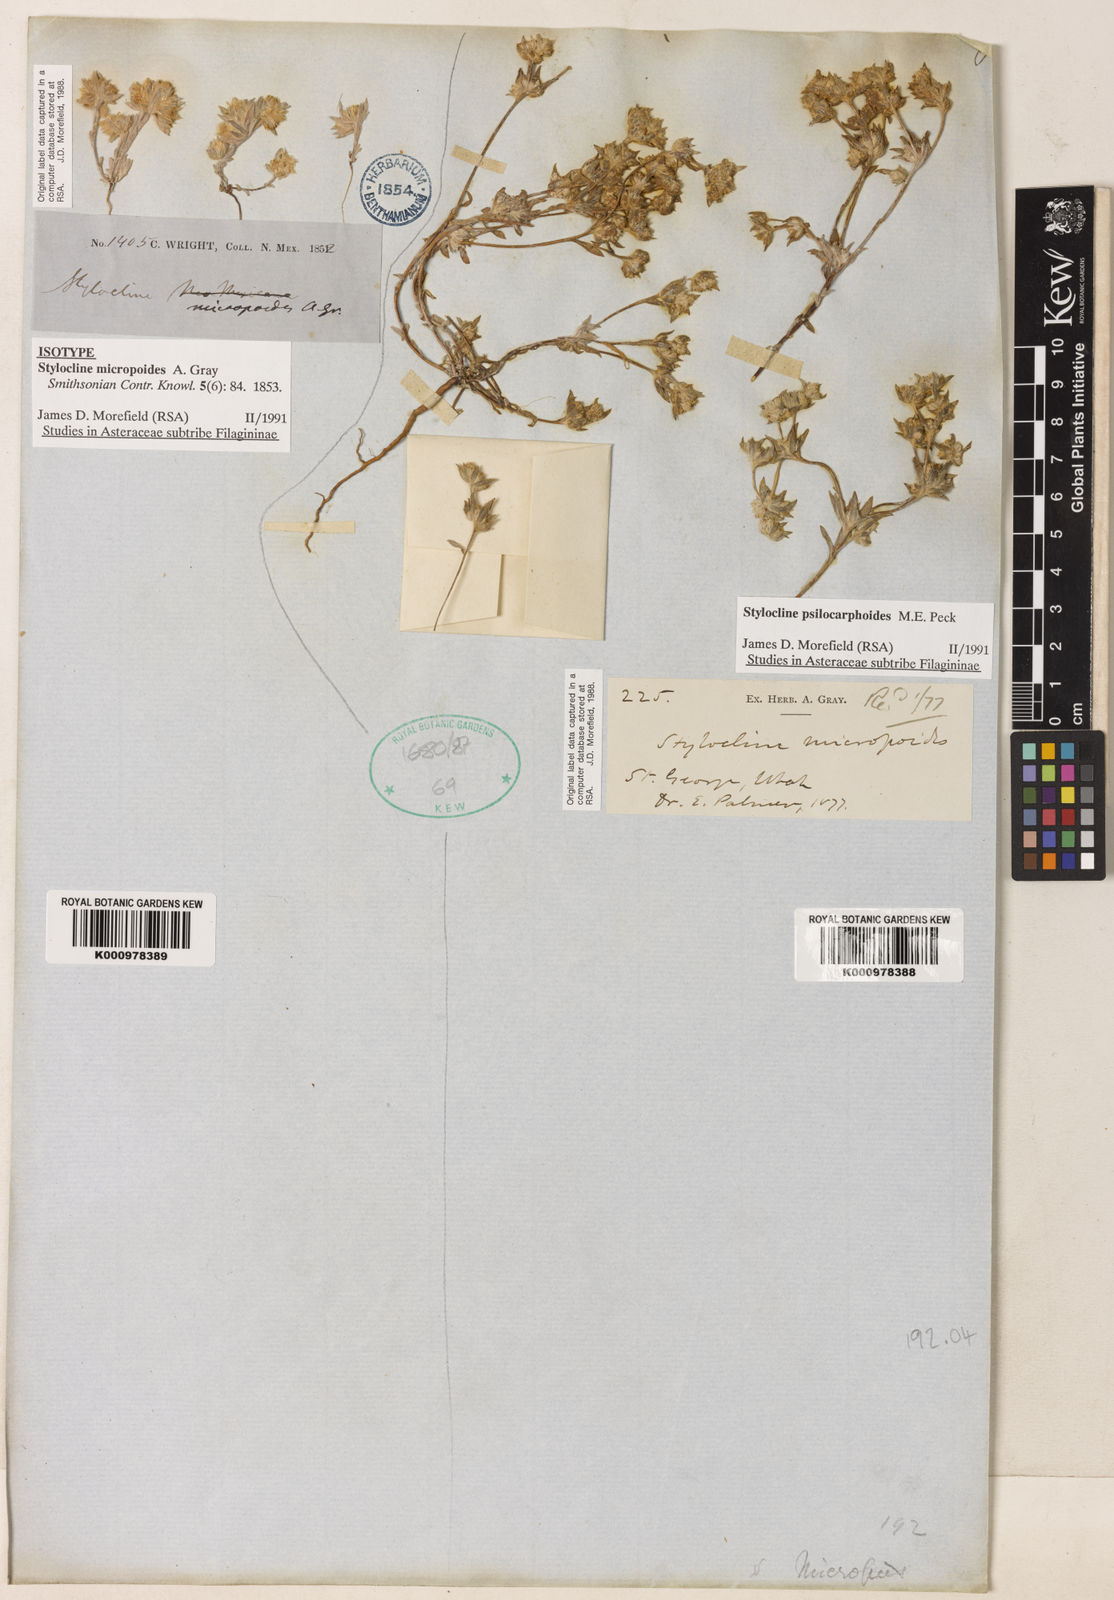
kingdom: Plantae
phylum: Tracheophyta
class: Magnoliopsida
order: Asterales
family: Asteraceae
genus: Stylocline
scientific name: Stylocline micropoides
